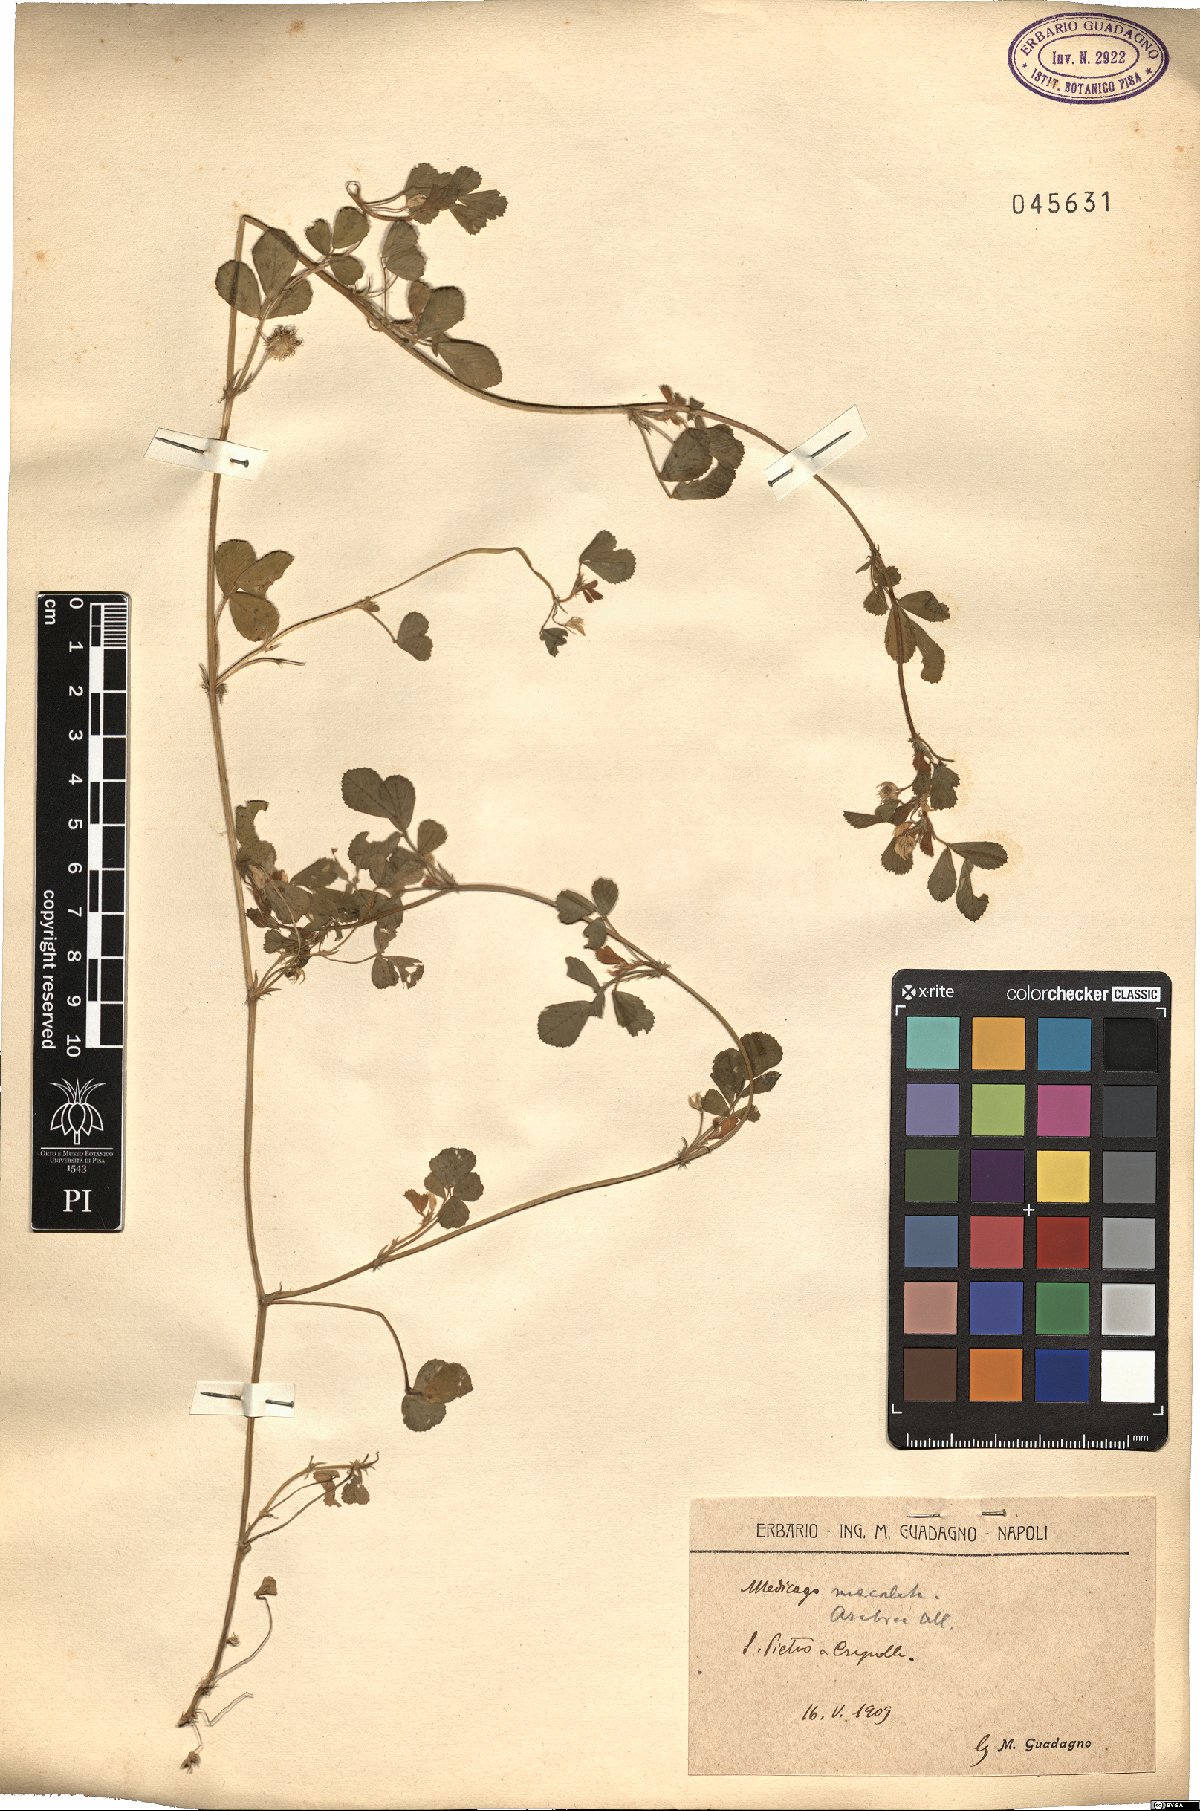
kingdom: Plantae
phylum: Tracheophyta
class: Magnoliopsida
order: Fabales
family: Fabaceae
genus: Medicago
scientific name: Medicago arabica
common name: Spotted medick
